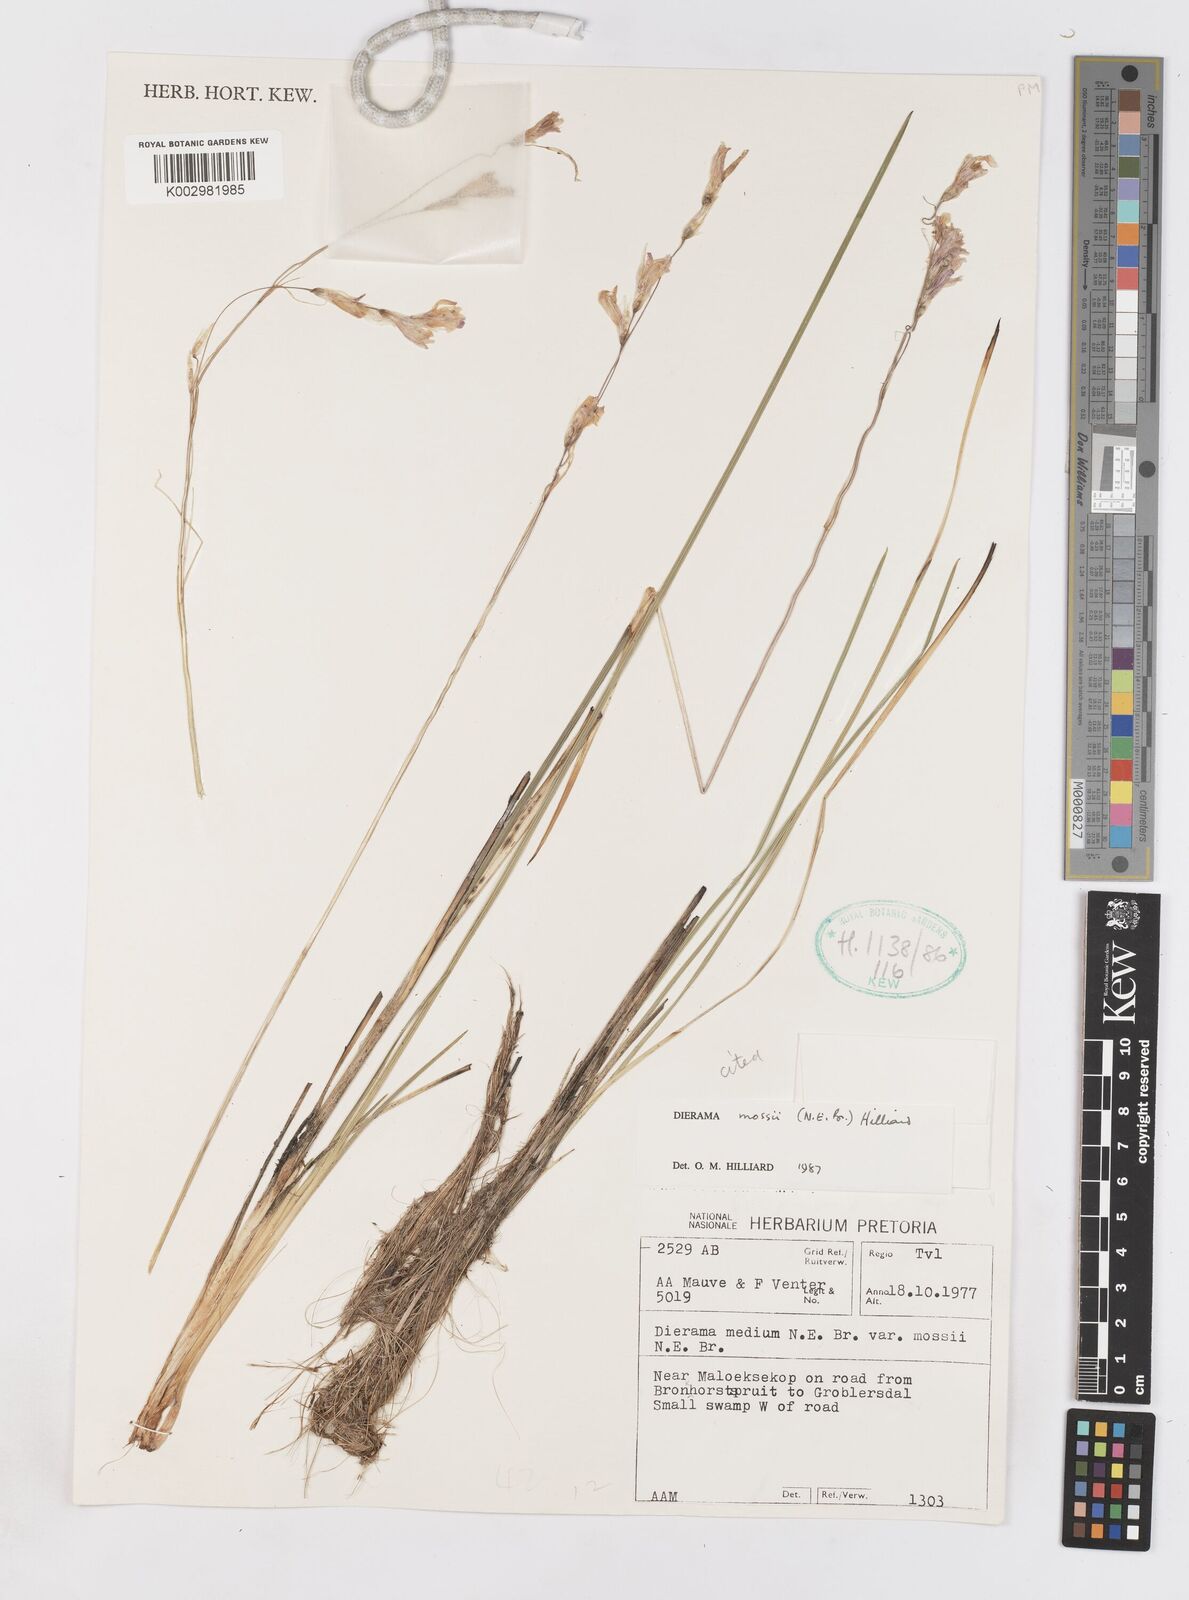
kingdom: Plantae
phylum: Tracheophyta
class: Liliopsida
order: Asparagales
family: Iridaceae
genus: Dierama
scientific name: Dierama mossii
